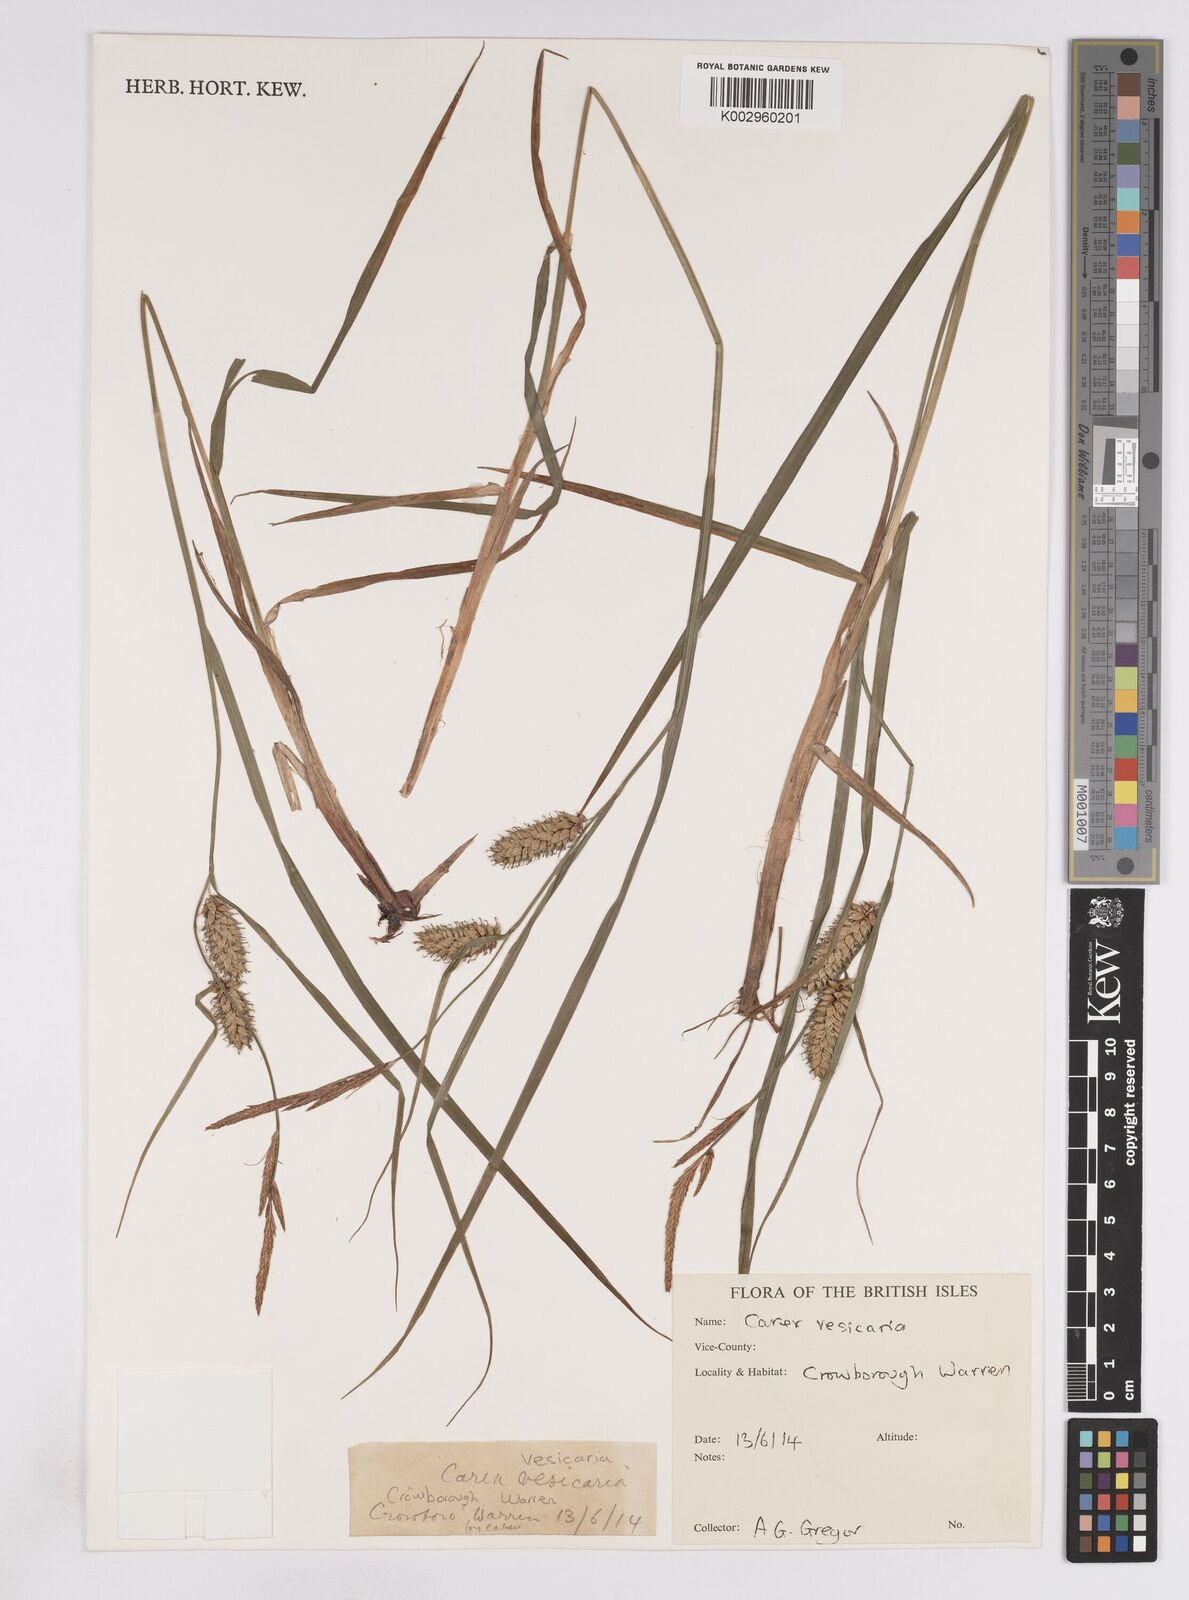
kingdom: Plantae
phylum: Tracheophyta
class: Liliopsida
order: Poales
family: Cyperaceae
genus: Carex
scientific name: Carex vesicaria
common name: Bladder-sedge
